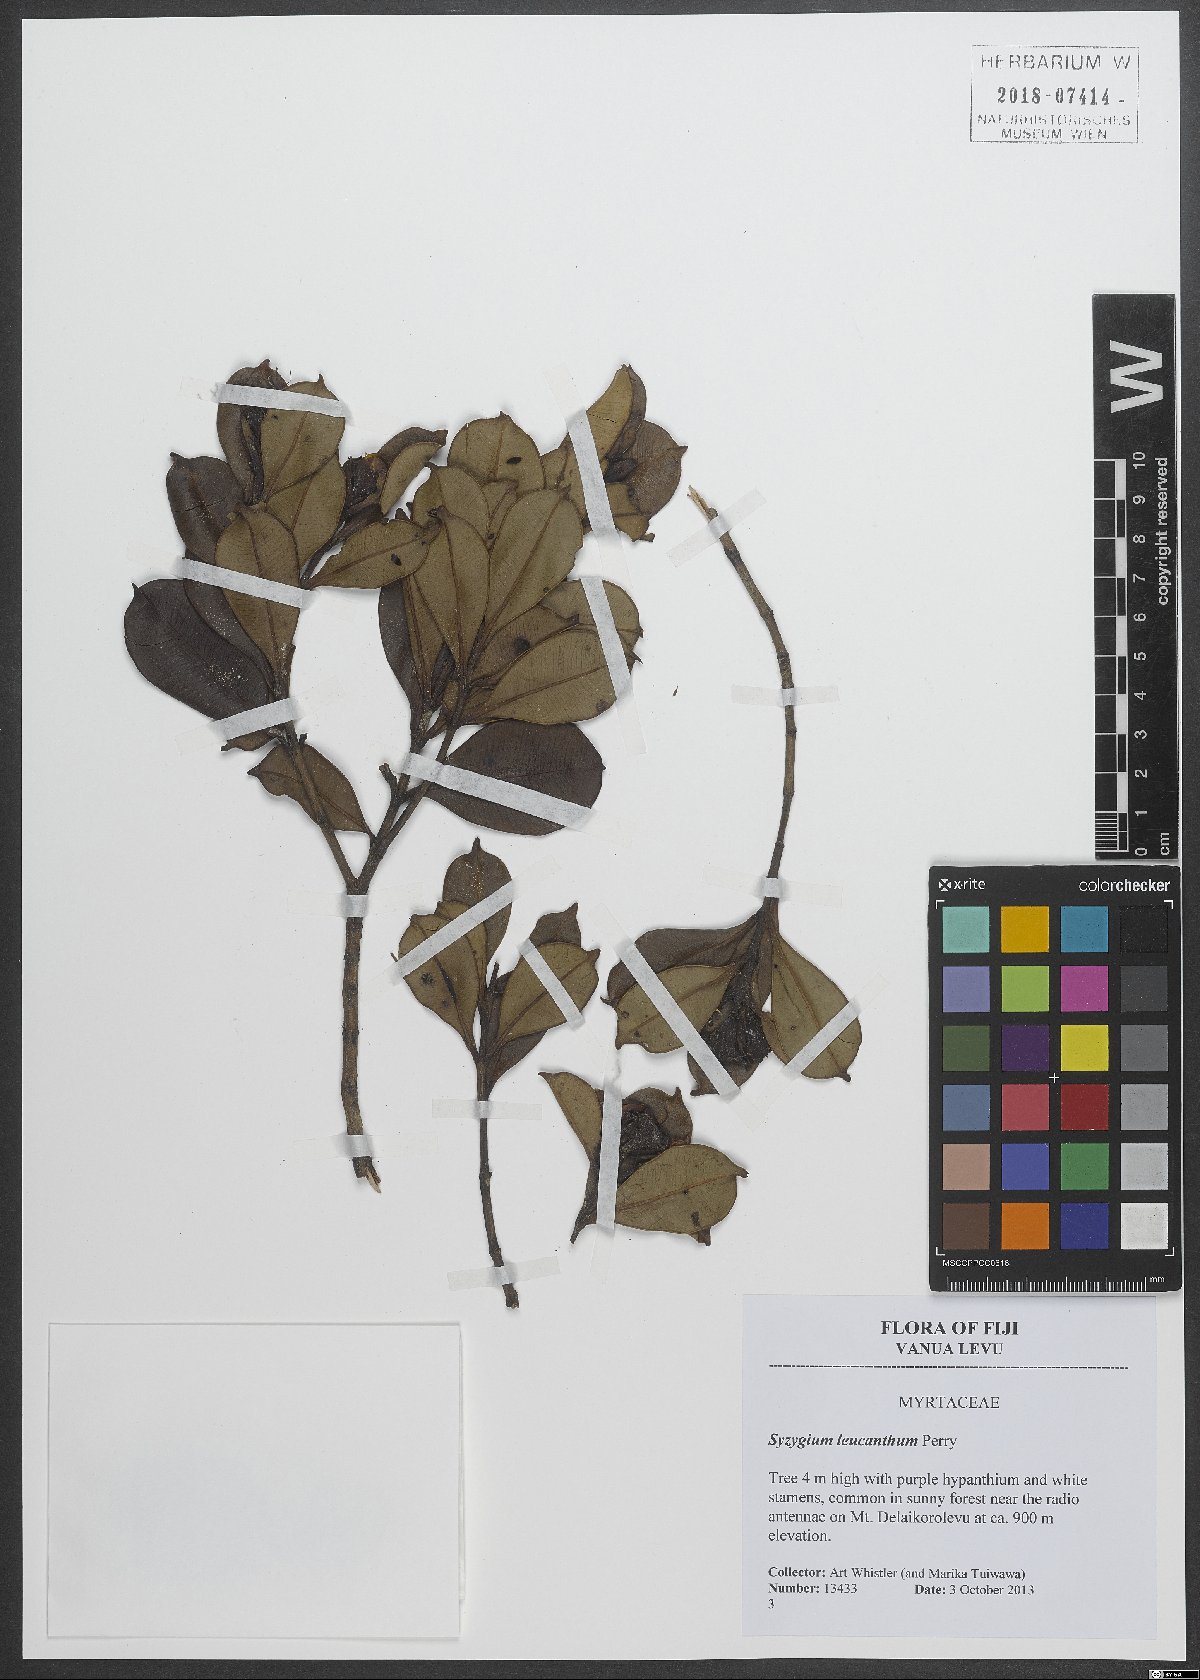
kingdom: Plantae
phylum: Tracheophyta
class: Magnoliopsida
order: Myrtales
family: Myrtaceae
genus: Syzygium
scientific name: Syzygium leucanthum
